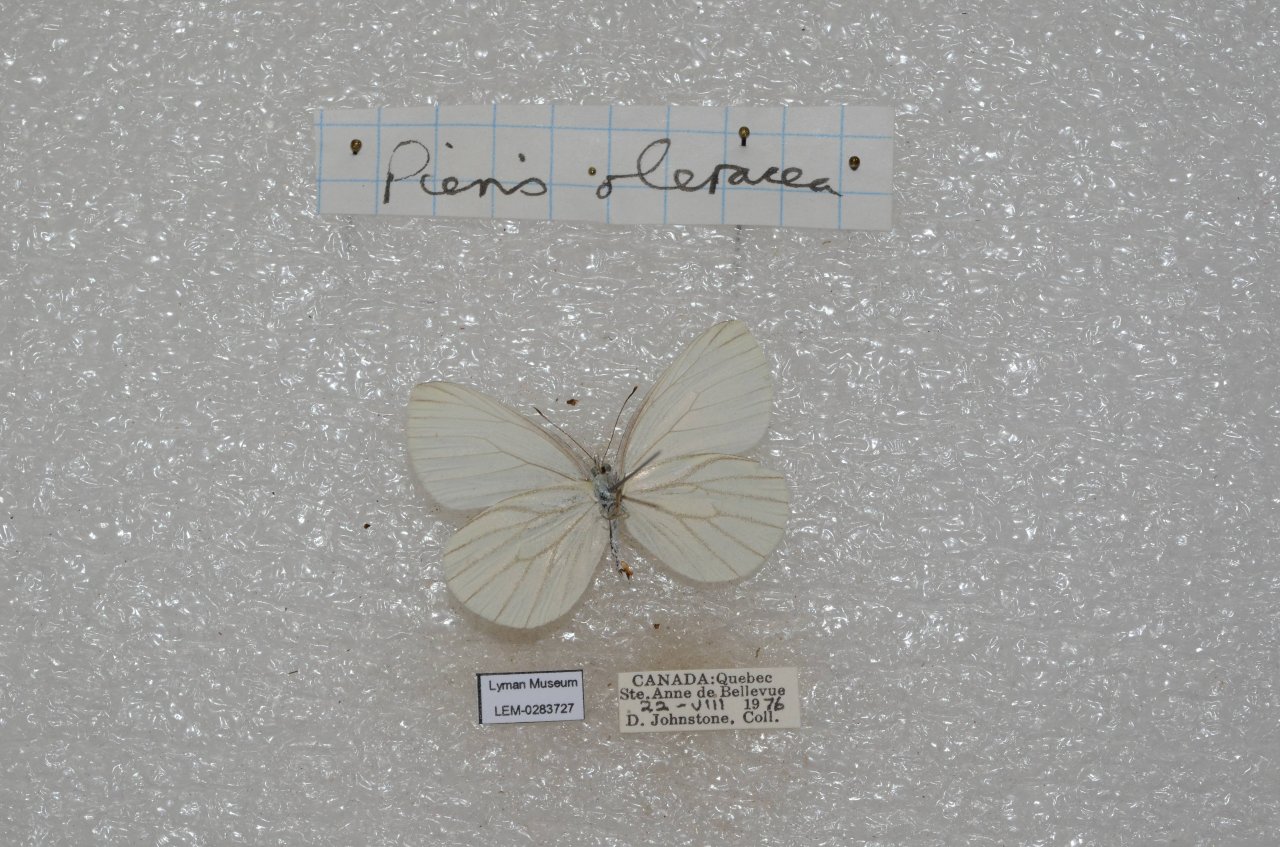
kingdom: Animalia
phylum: Arthropoda
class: Insecta
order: Lepidoptera
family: Pieridae
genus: Pieris
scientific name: Pieris oleracea
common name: Mustard White
